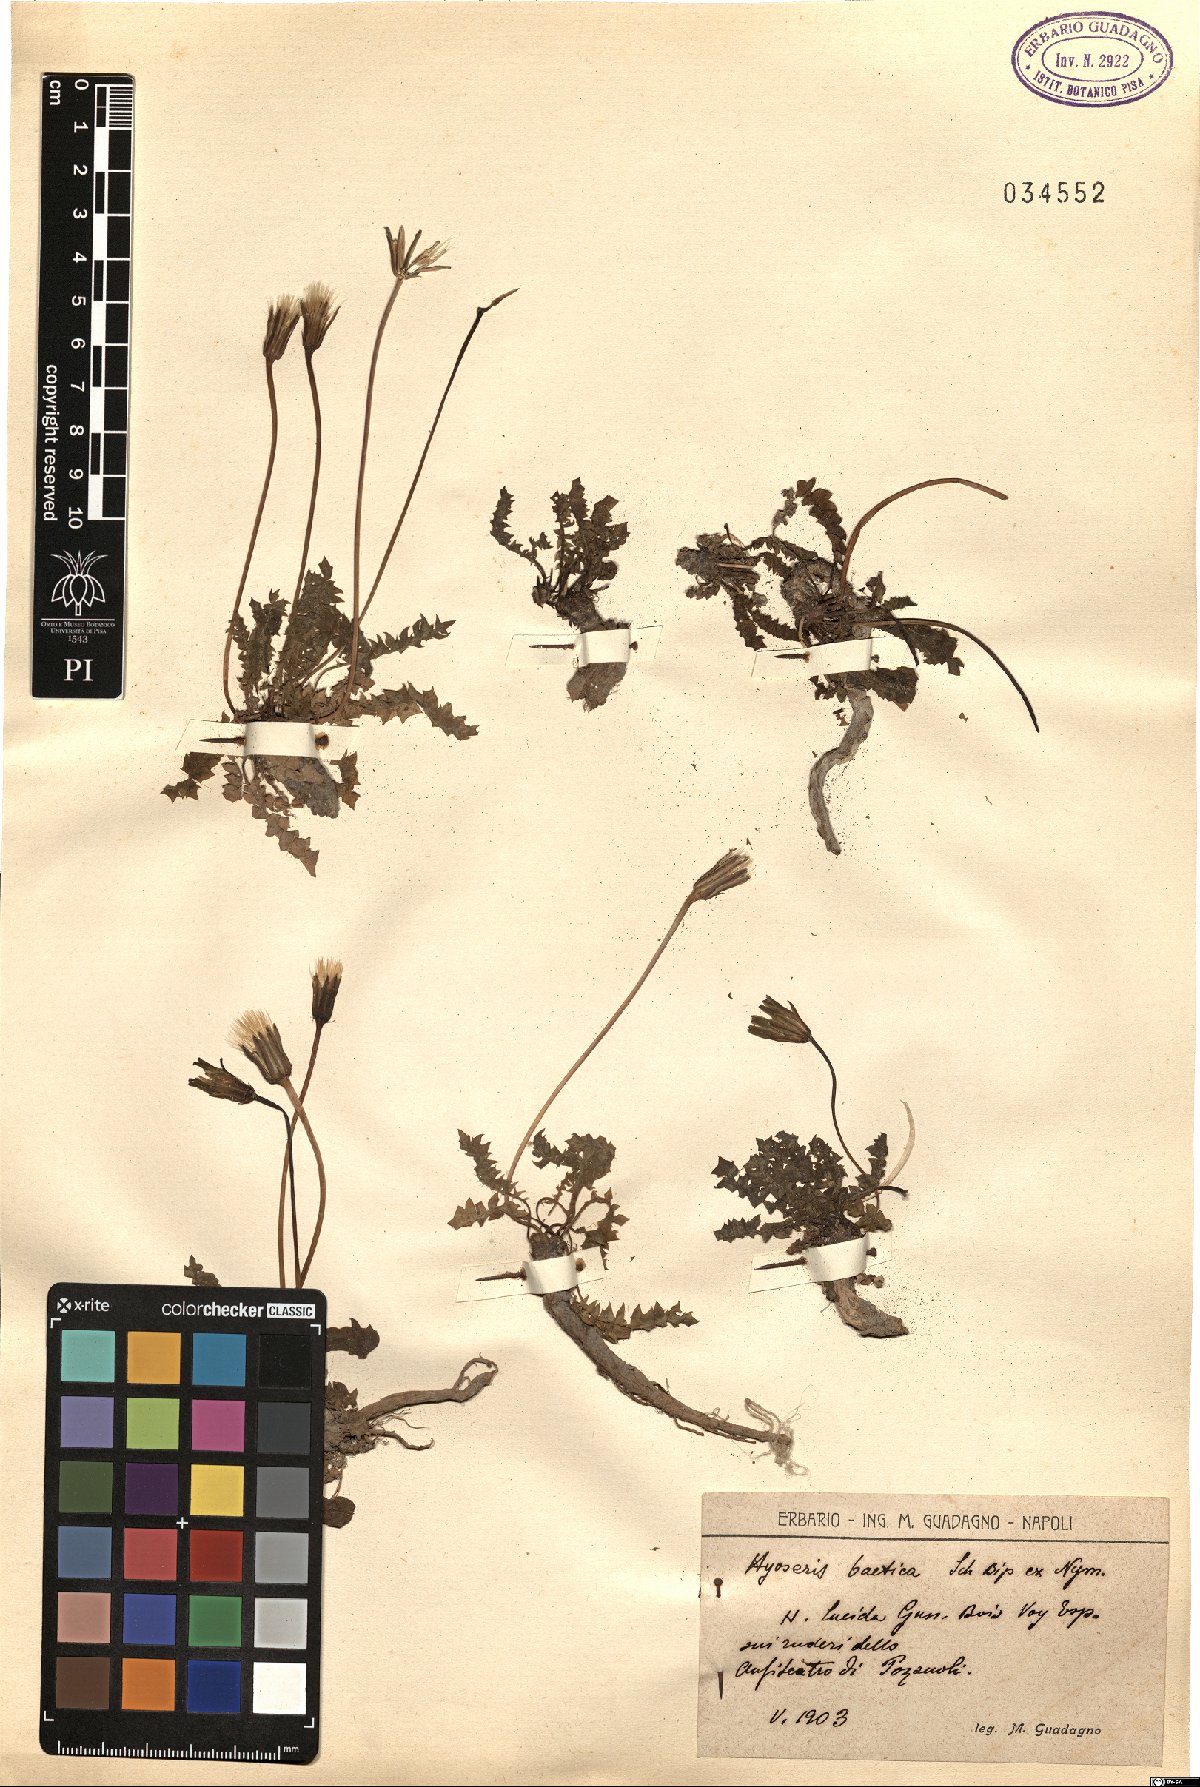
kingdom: Plantae
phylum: Tracheophyta
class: Magnoliopsida
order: Asterales
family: Asteraceae
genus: Hyoseris
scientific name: Hyoseris radiata
